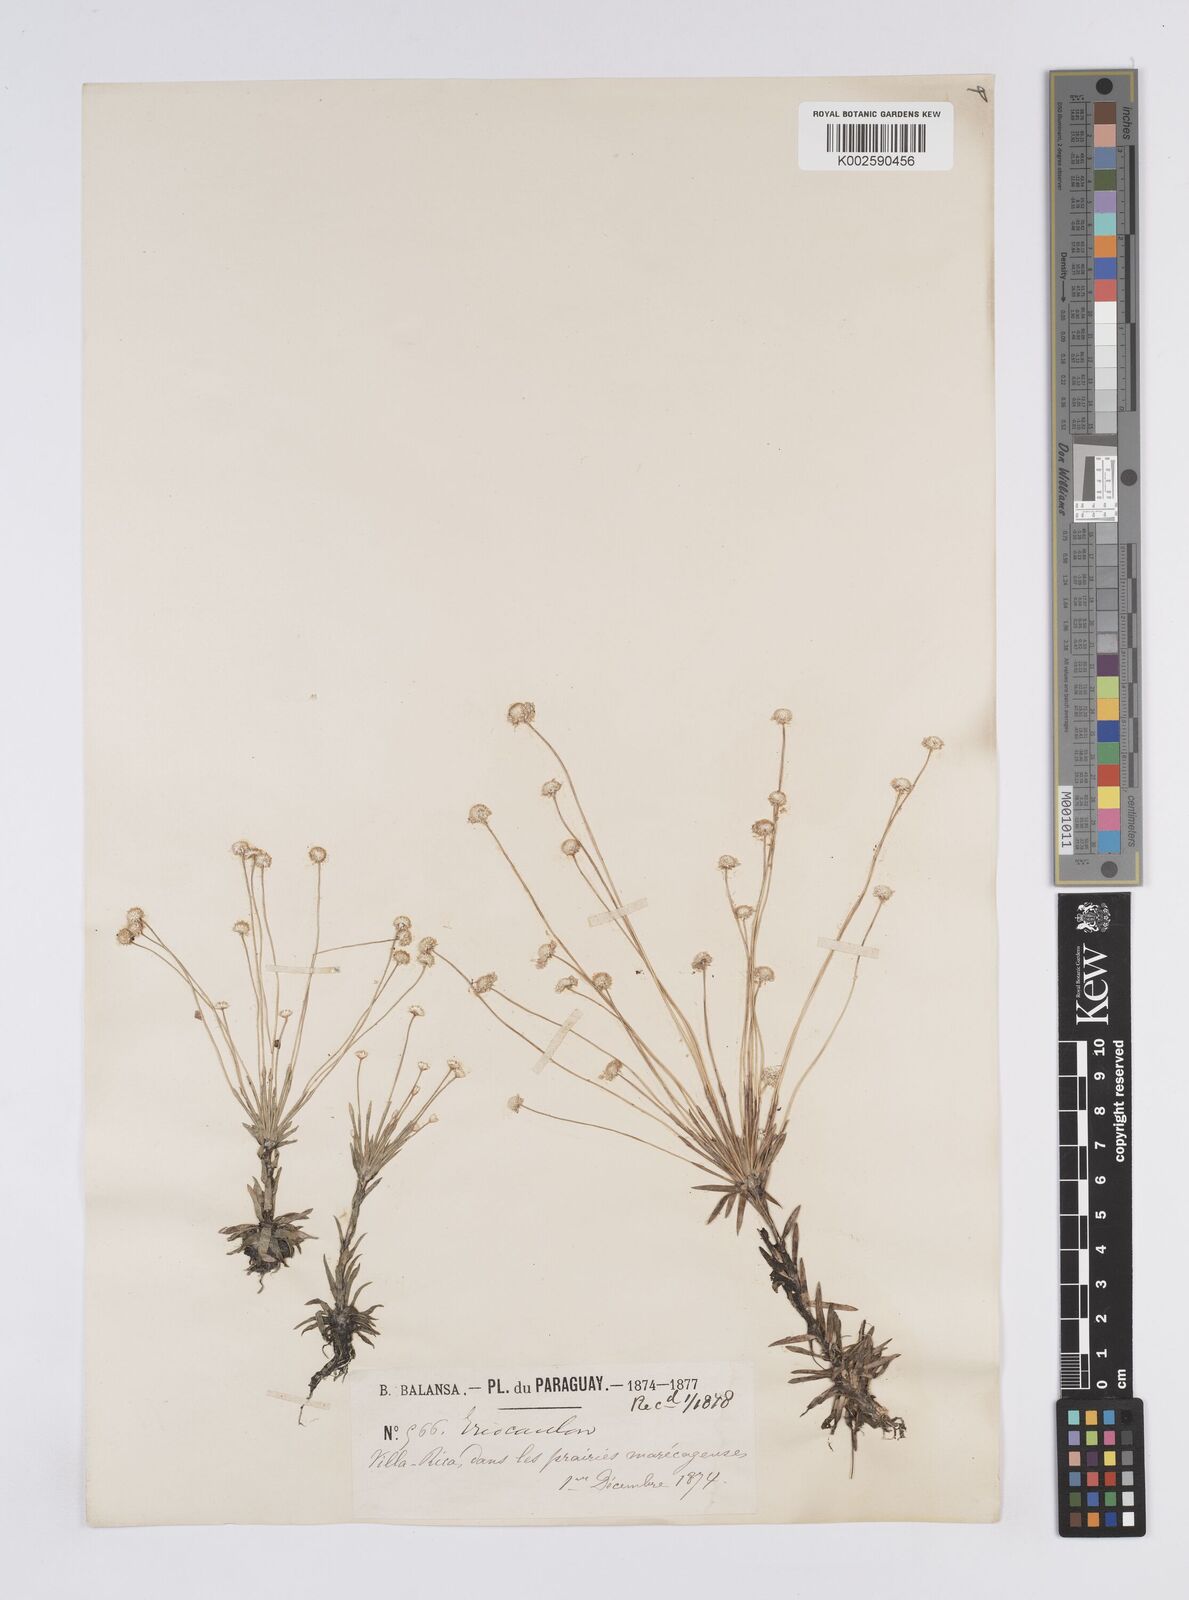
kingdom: Plantae
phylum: Tracheophyta
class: Liliopsida
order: Poales
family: Eriocaulaceae
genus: Syngonanthus
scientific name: Syngonanthus caulescens
